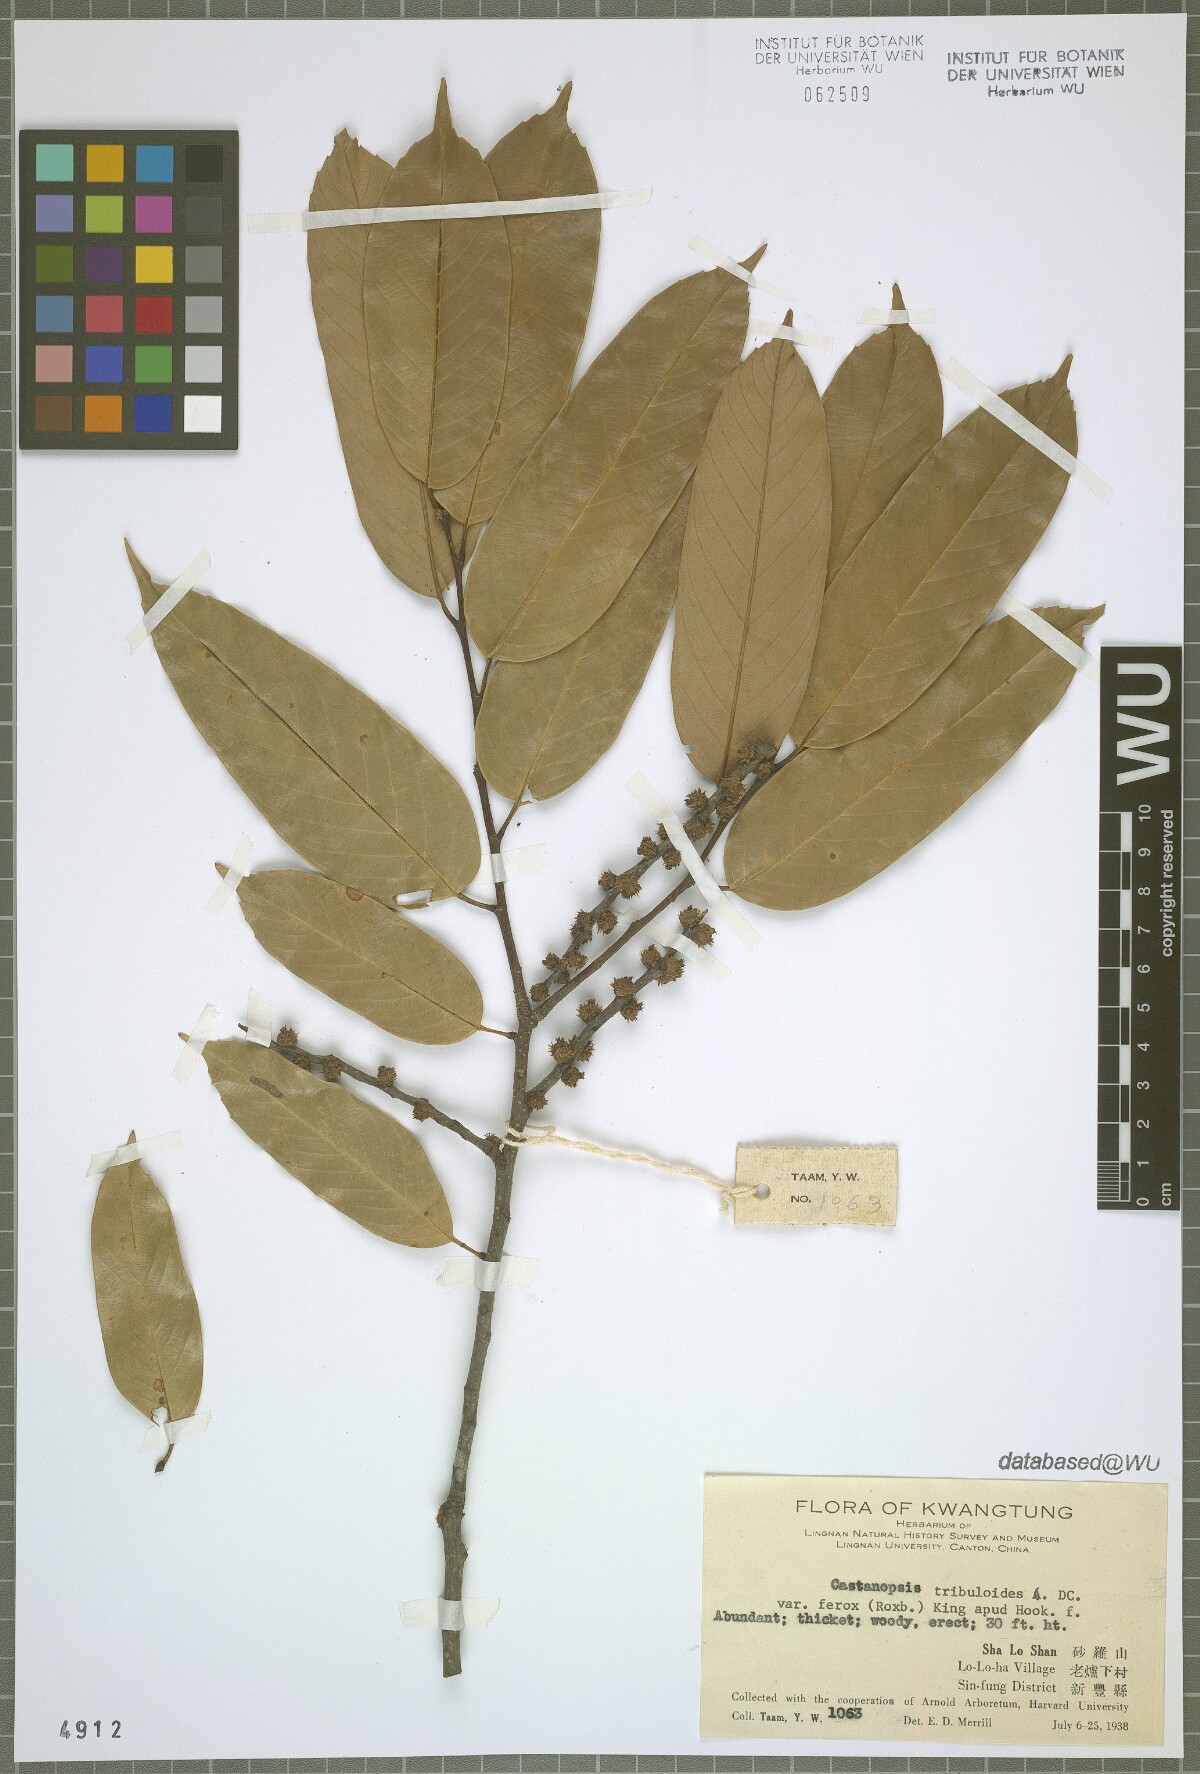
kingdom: Plantae
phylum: Tracheophyta
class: Magnoliopsida
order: Fagales
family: Fagaceae
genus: Castanopsis
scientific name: Castanopsis ferox
